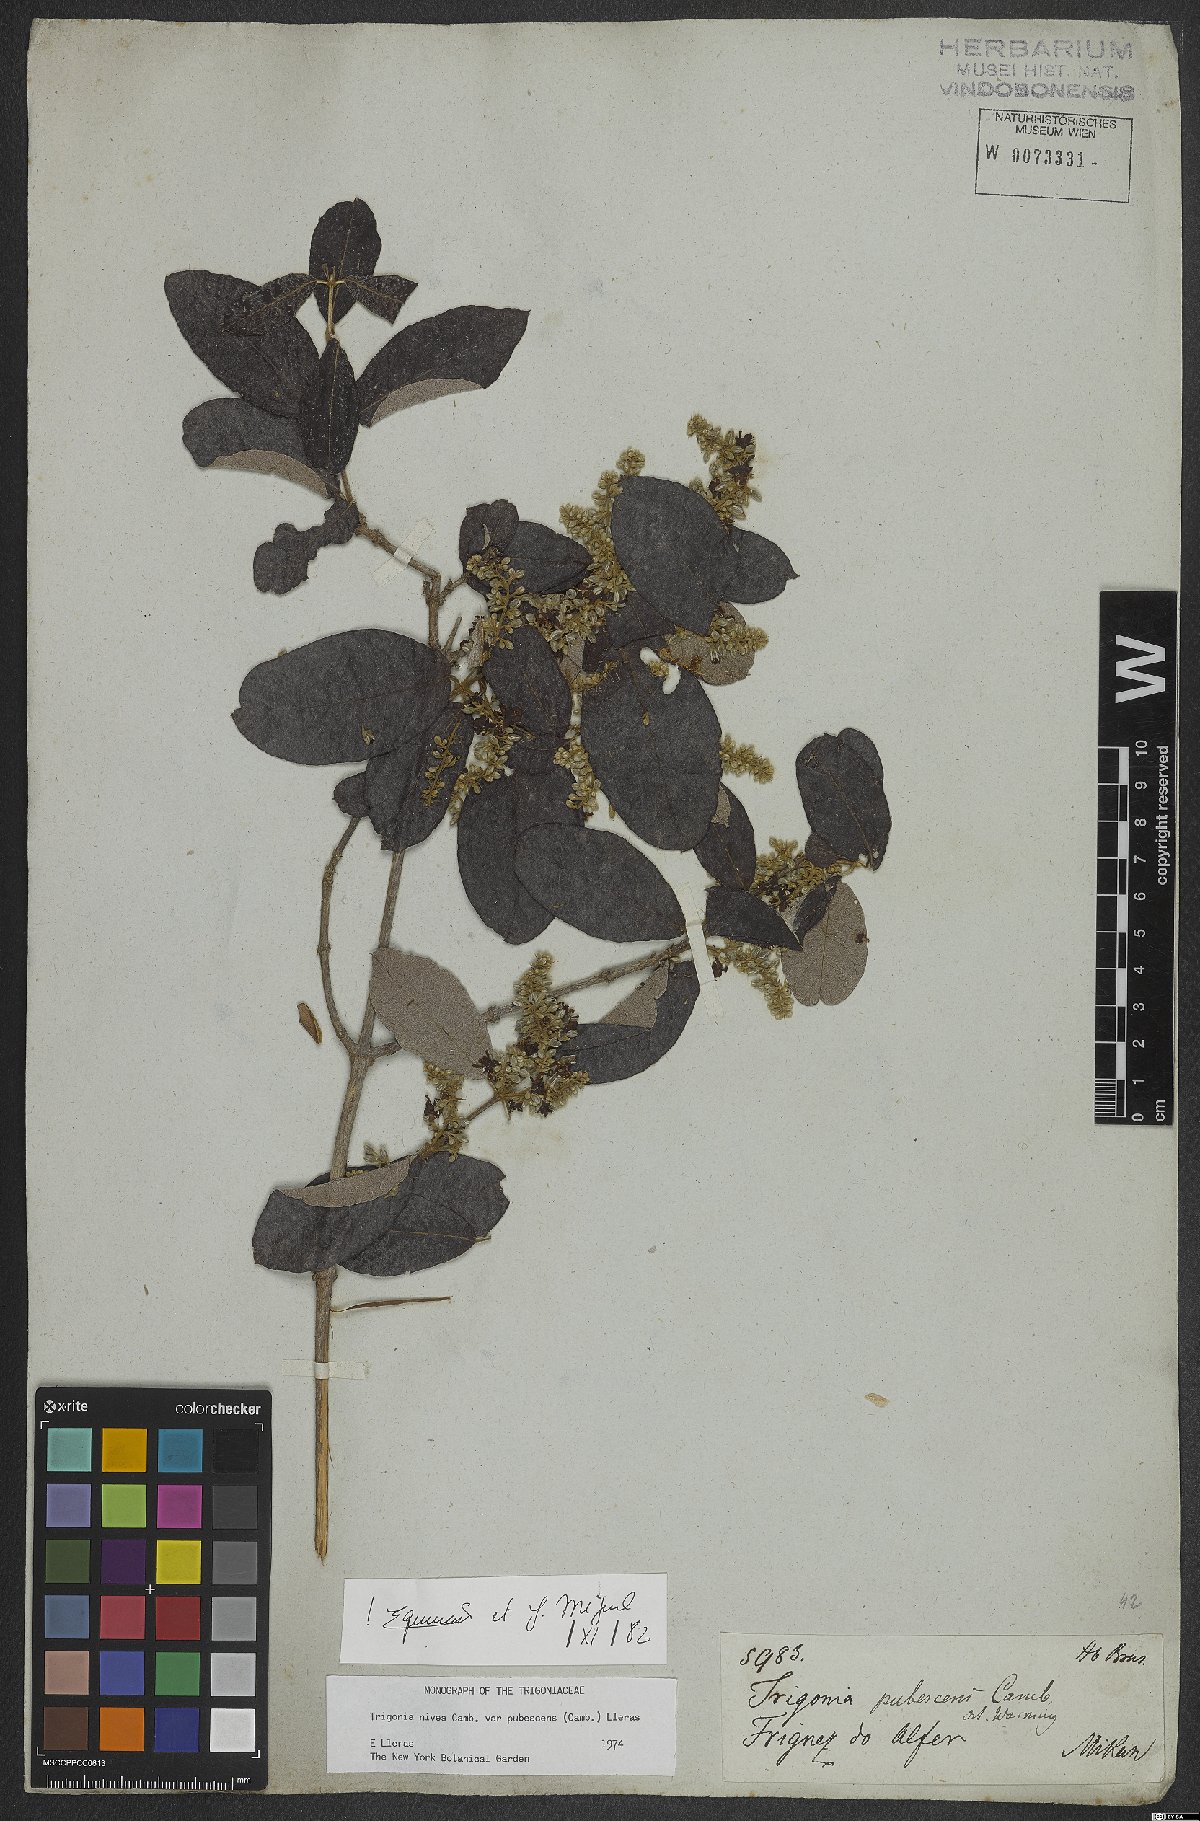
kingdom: Plantae
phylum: Tracheophyta
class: Magnoliopsida
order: Malpighiales
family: Trigoniaceae
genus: Trigonia
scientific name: Trigonia nivea
